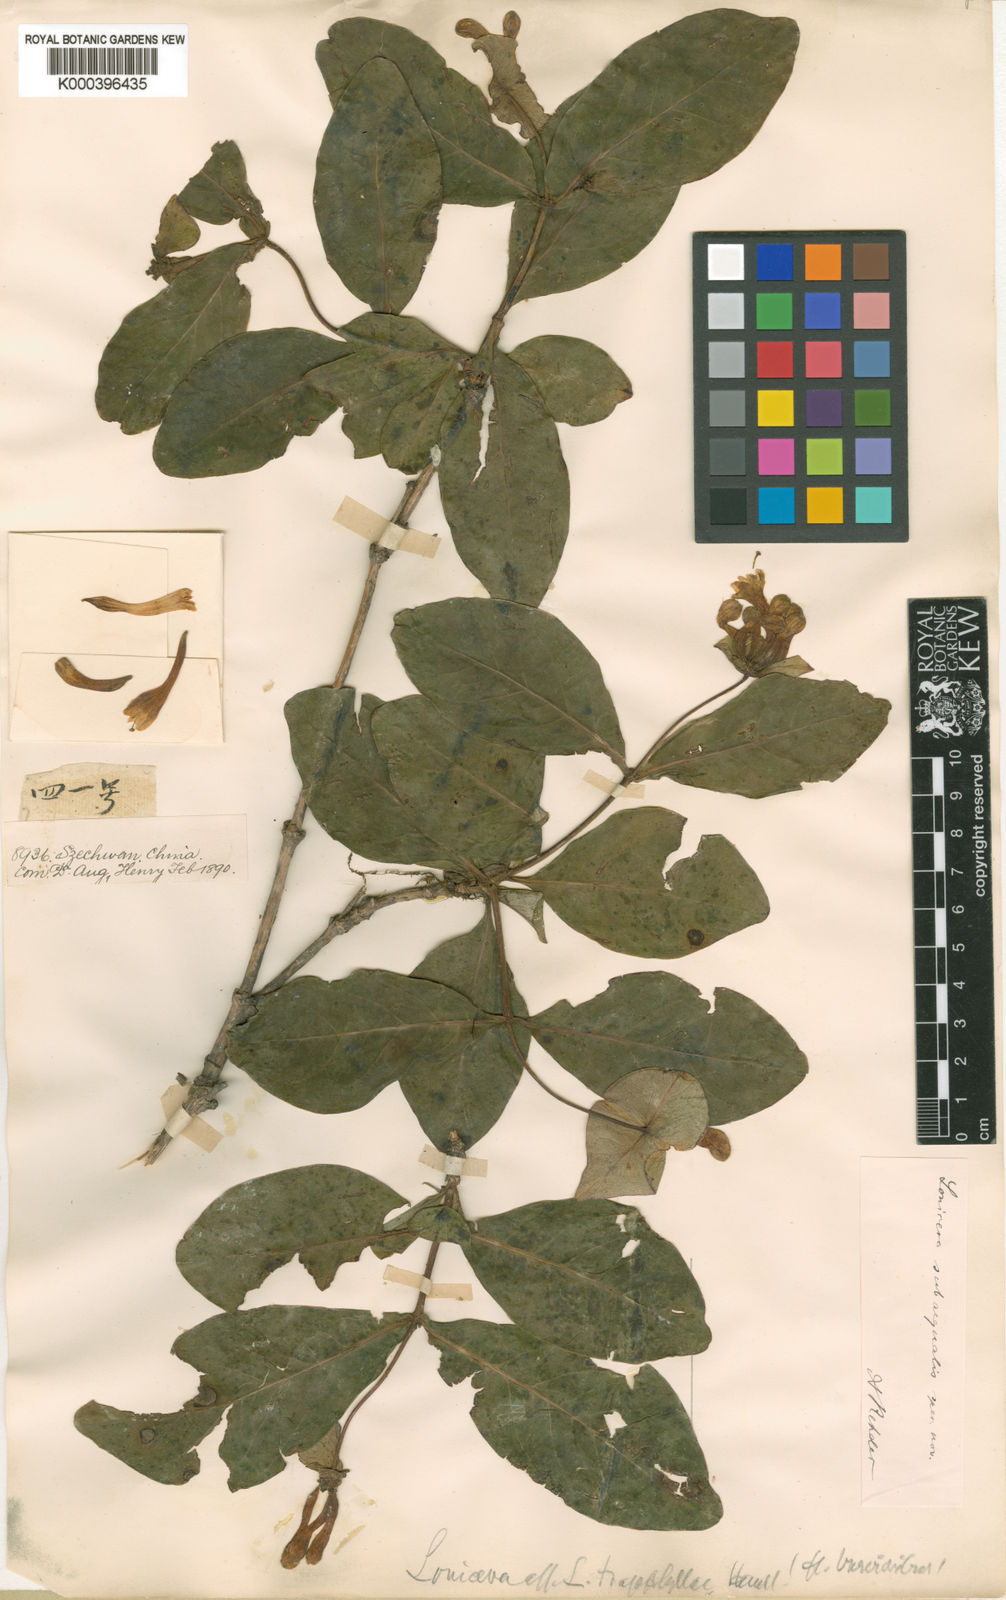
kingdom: Plantae
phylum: Tracheophyta
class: Magnoliopsida
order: Dipsacales
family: Caprifoliaceae
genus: Lonicera
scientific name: Lonicera subaequalis
